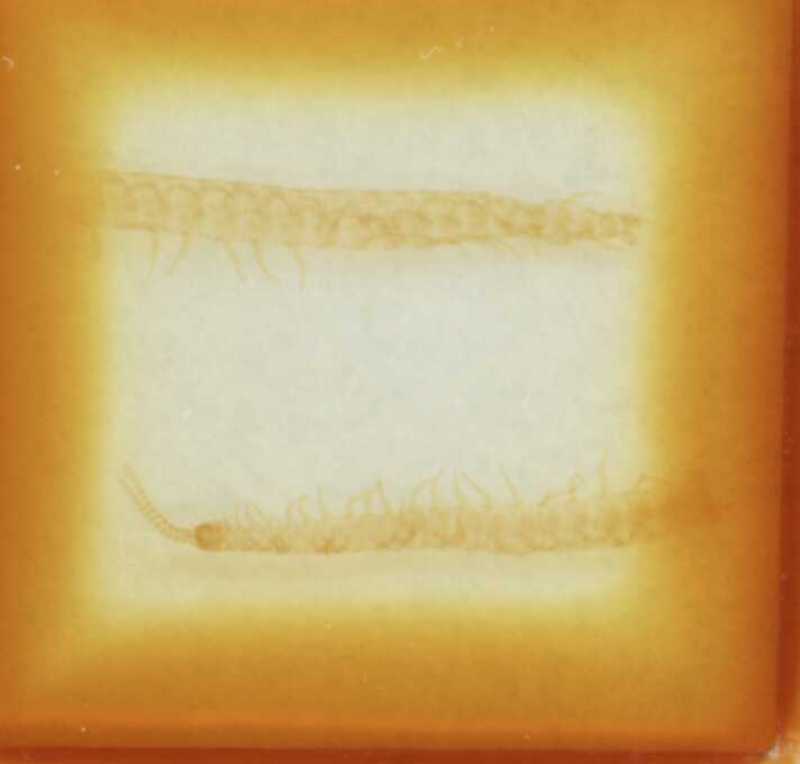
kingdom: Animalia
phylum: Arthropoda
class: Chilopoda
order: Geophilomorpha
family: Linotaeniidae
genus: Strigamia
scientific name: Strigamia acuminata
